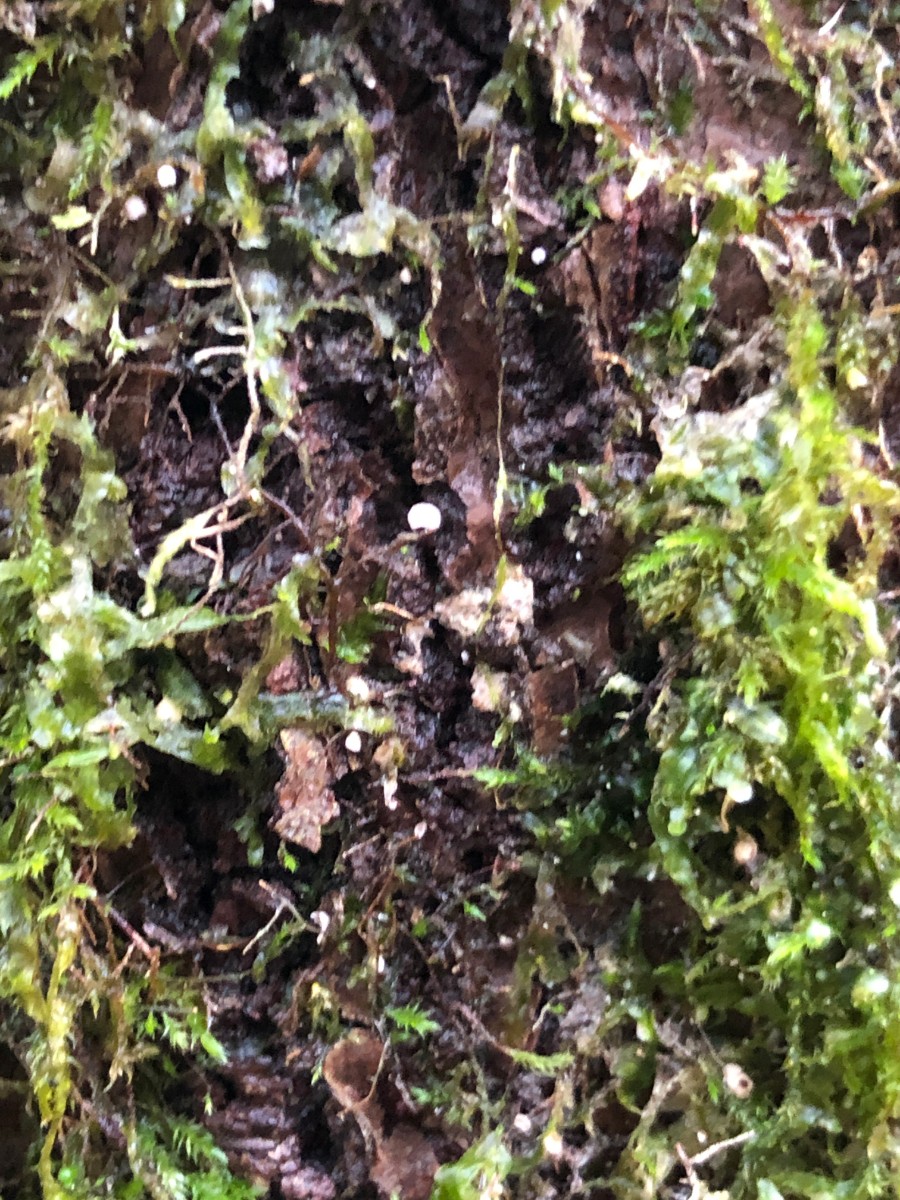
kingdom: Fungi
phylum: Basidiomycota
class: Agaricomycetes
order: Agaricales
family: Chromocyphellaceae
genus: Chromocyphella
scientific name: Chromocyphella muscicola
